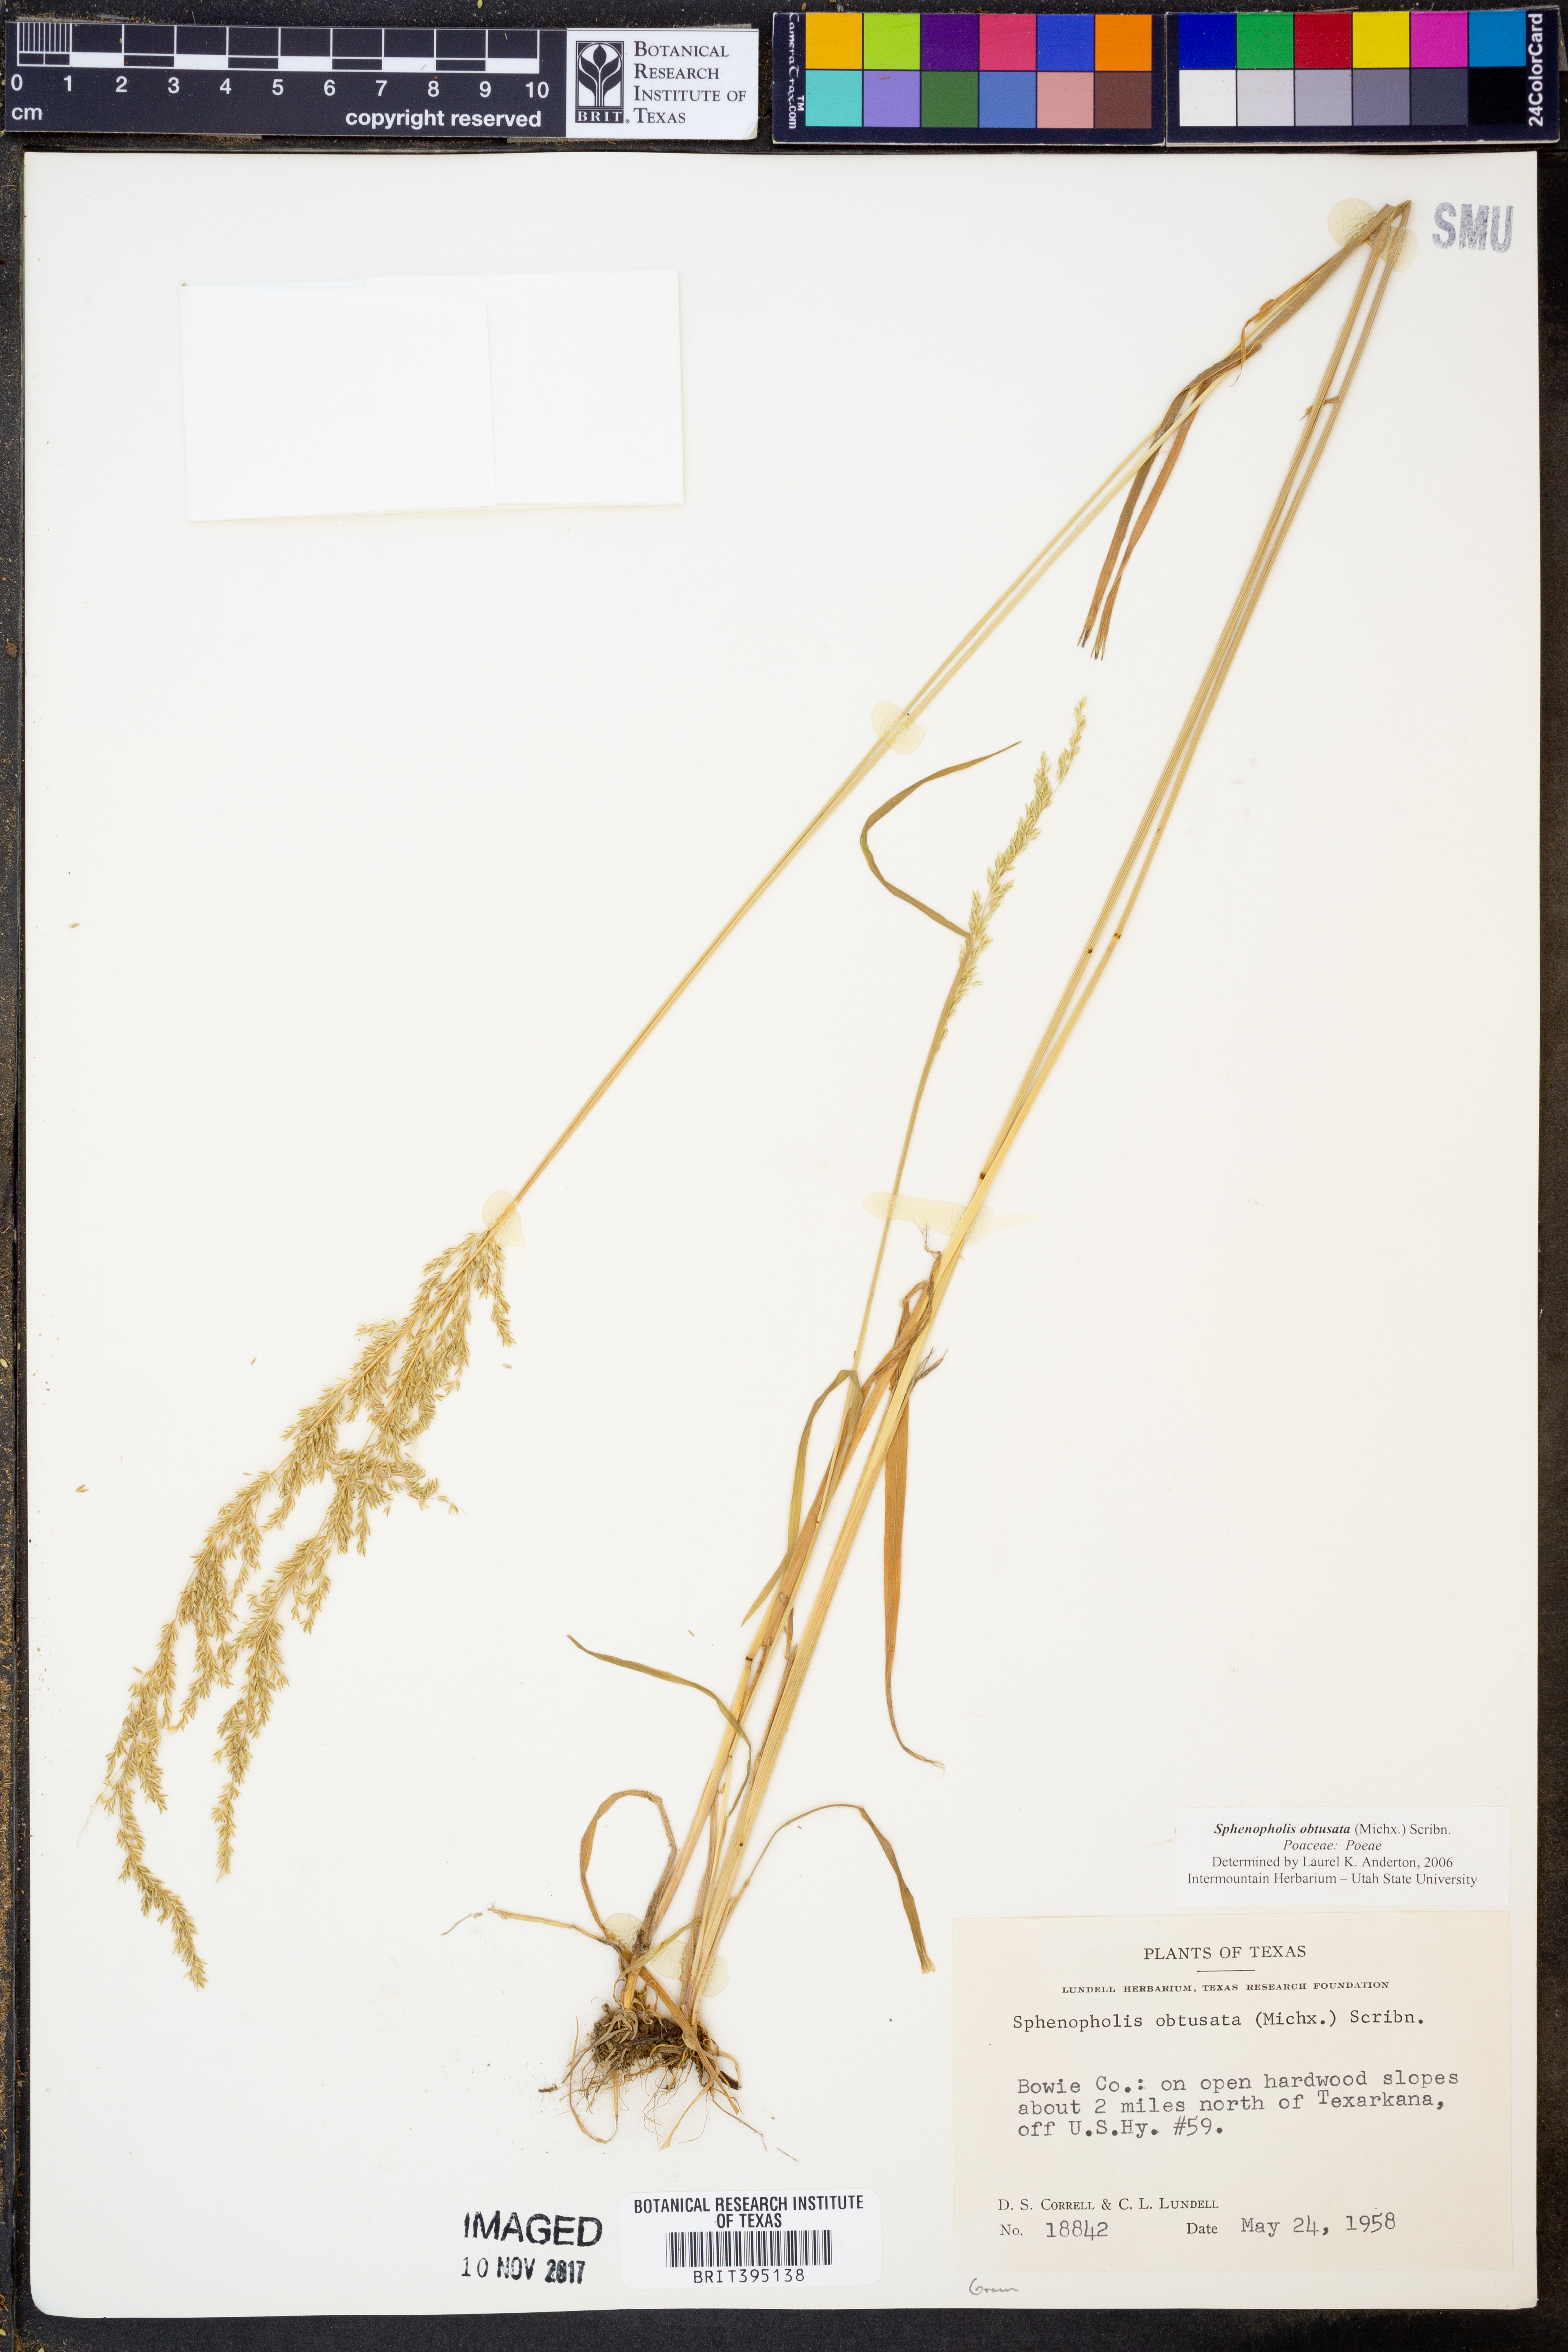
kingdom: Plantae
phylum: Tracheophyta
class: Liliopsida
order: Poales
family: Poaceae
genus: Sphenopholis
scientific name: Sphenopholis obtusata
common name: Prairie grass
